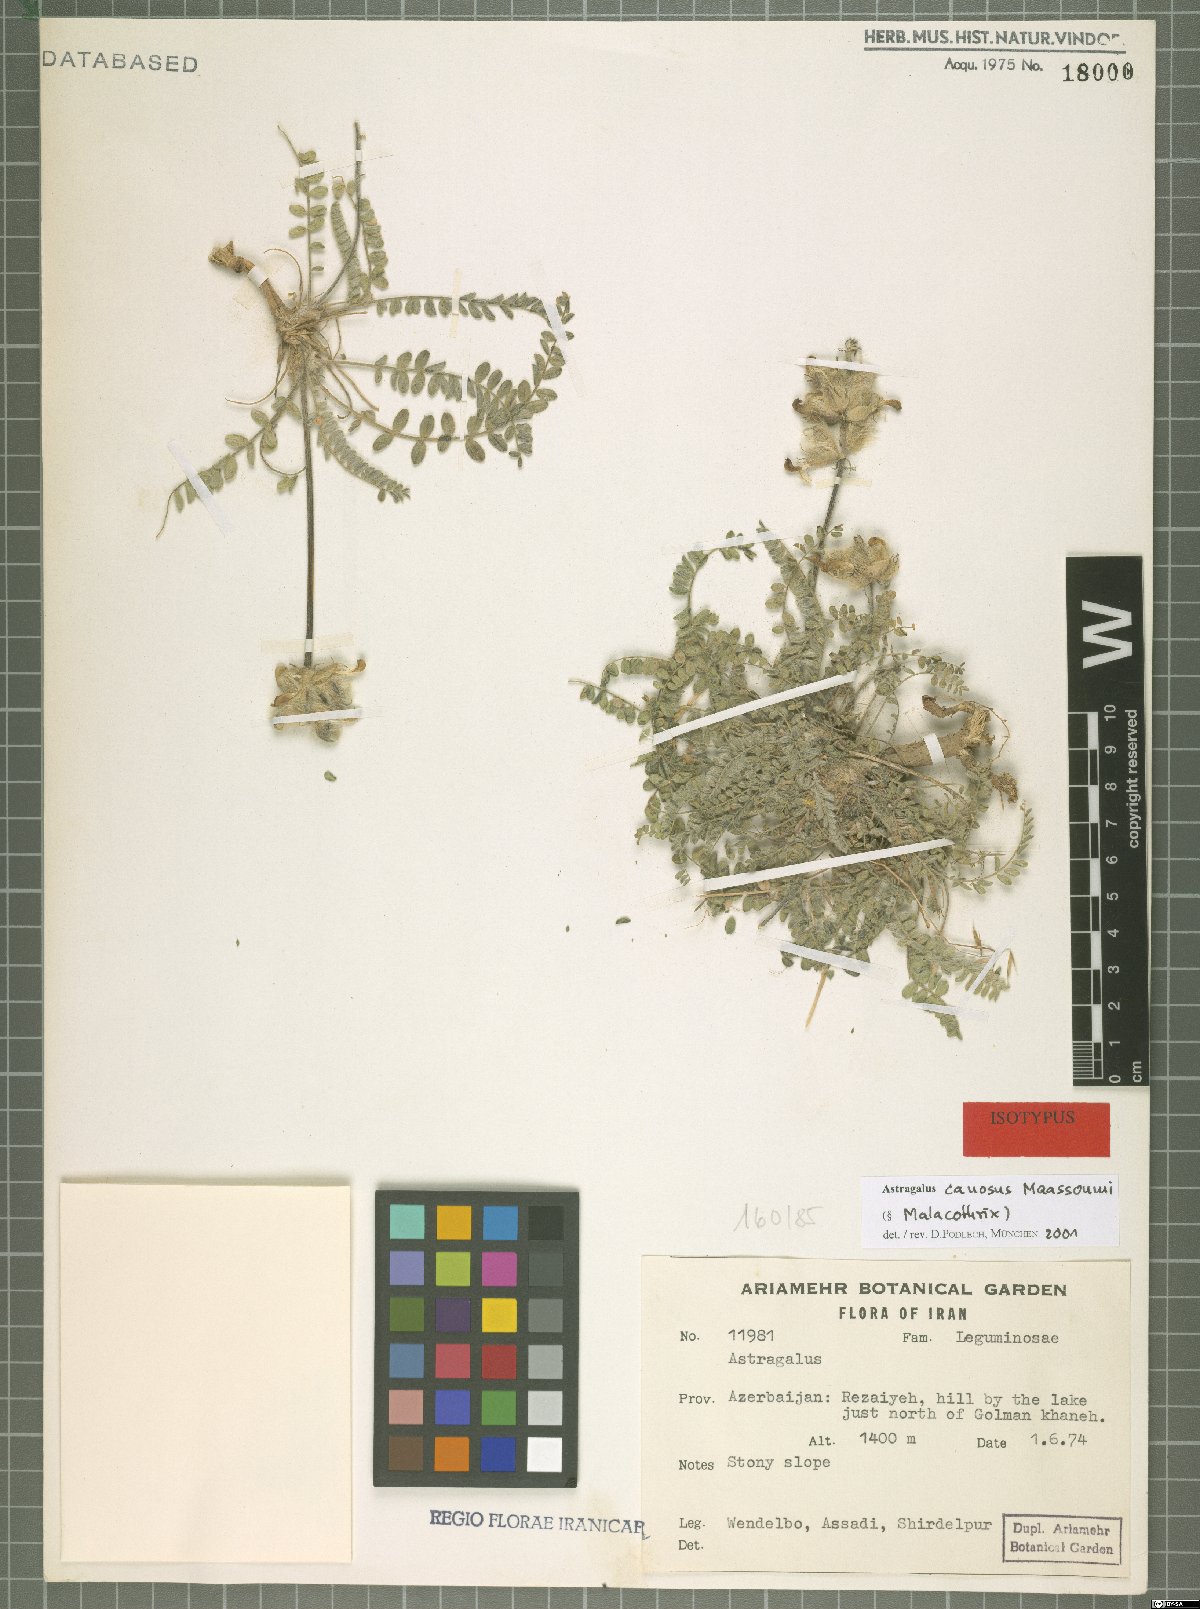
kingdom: Plantae
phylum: Tracheophyta
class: Magnoliopsida
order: Fabales
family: Fabaceae
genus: Astragalus
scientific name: Astragalus canosus
